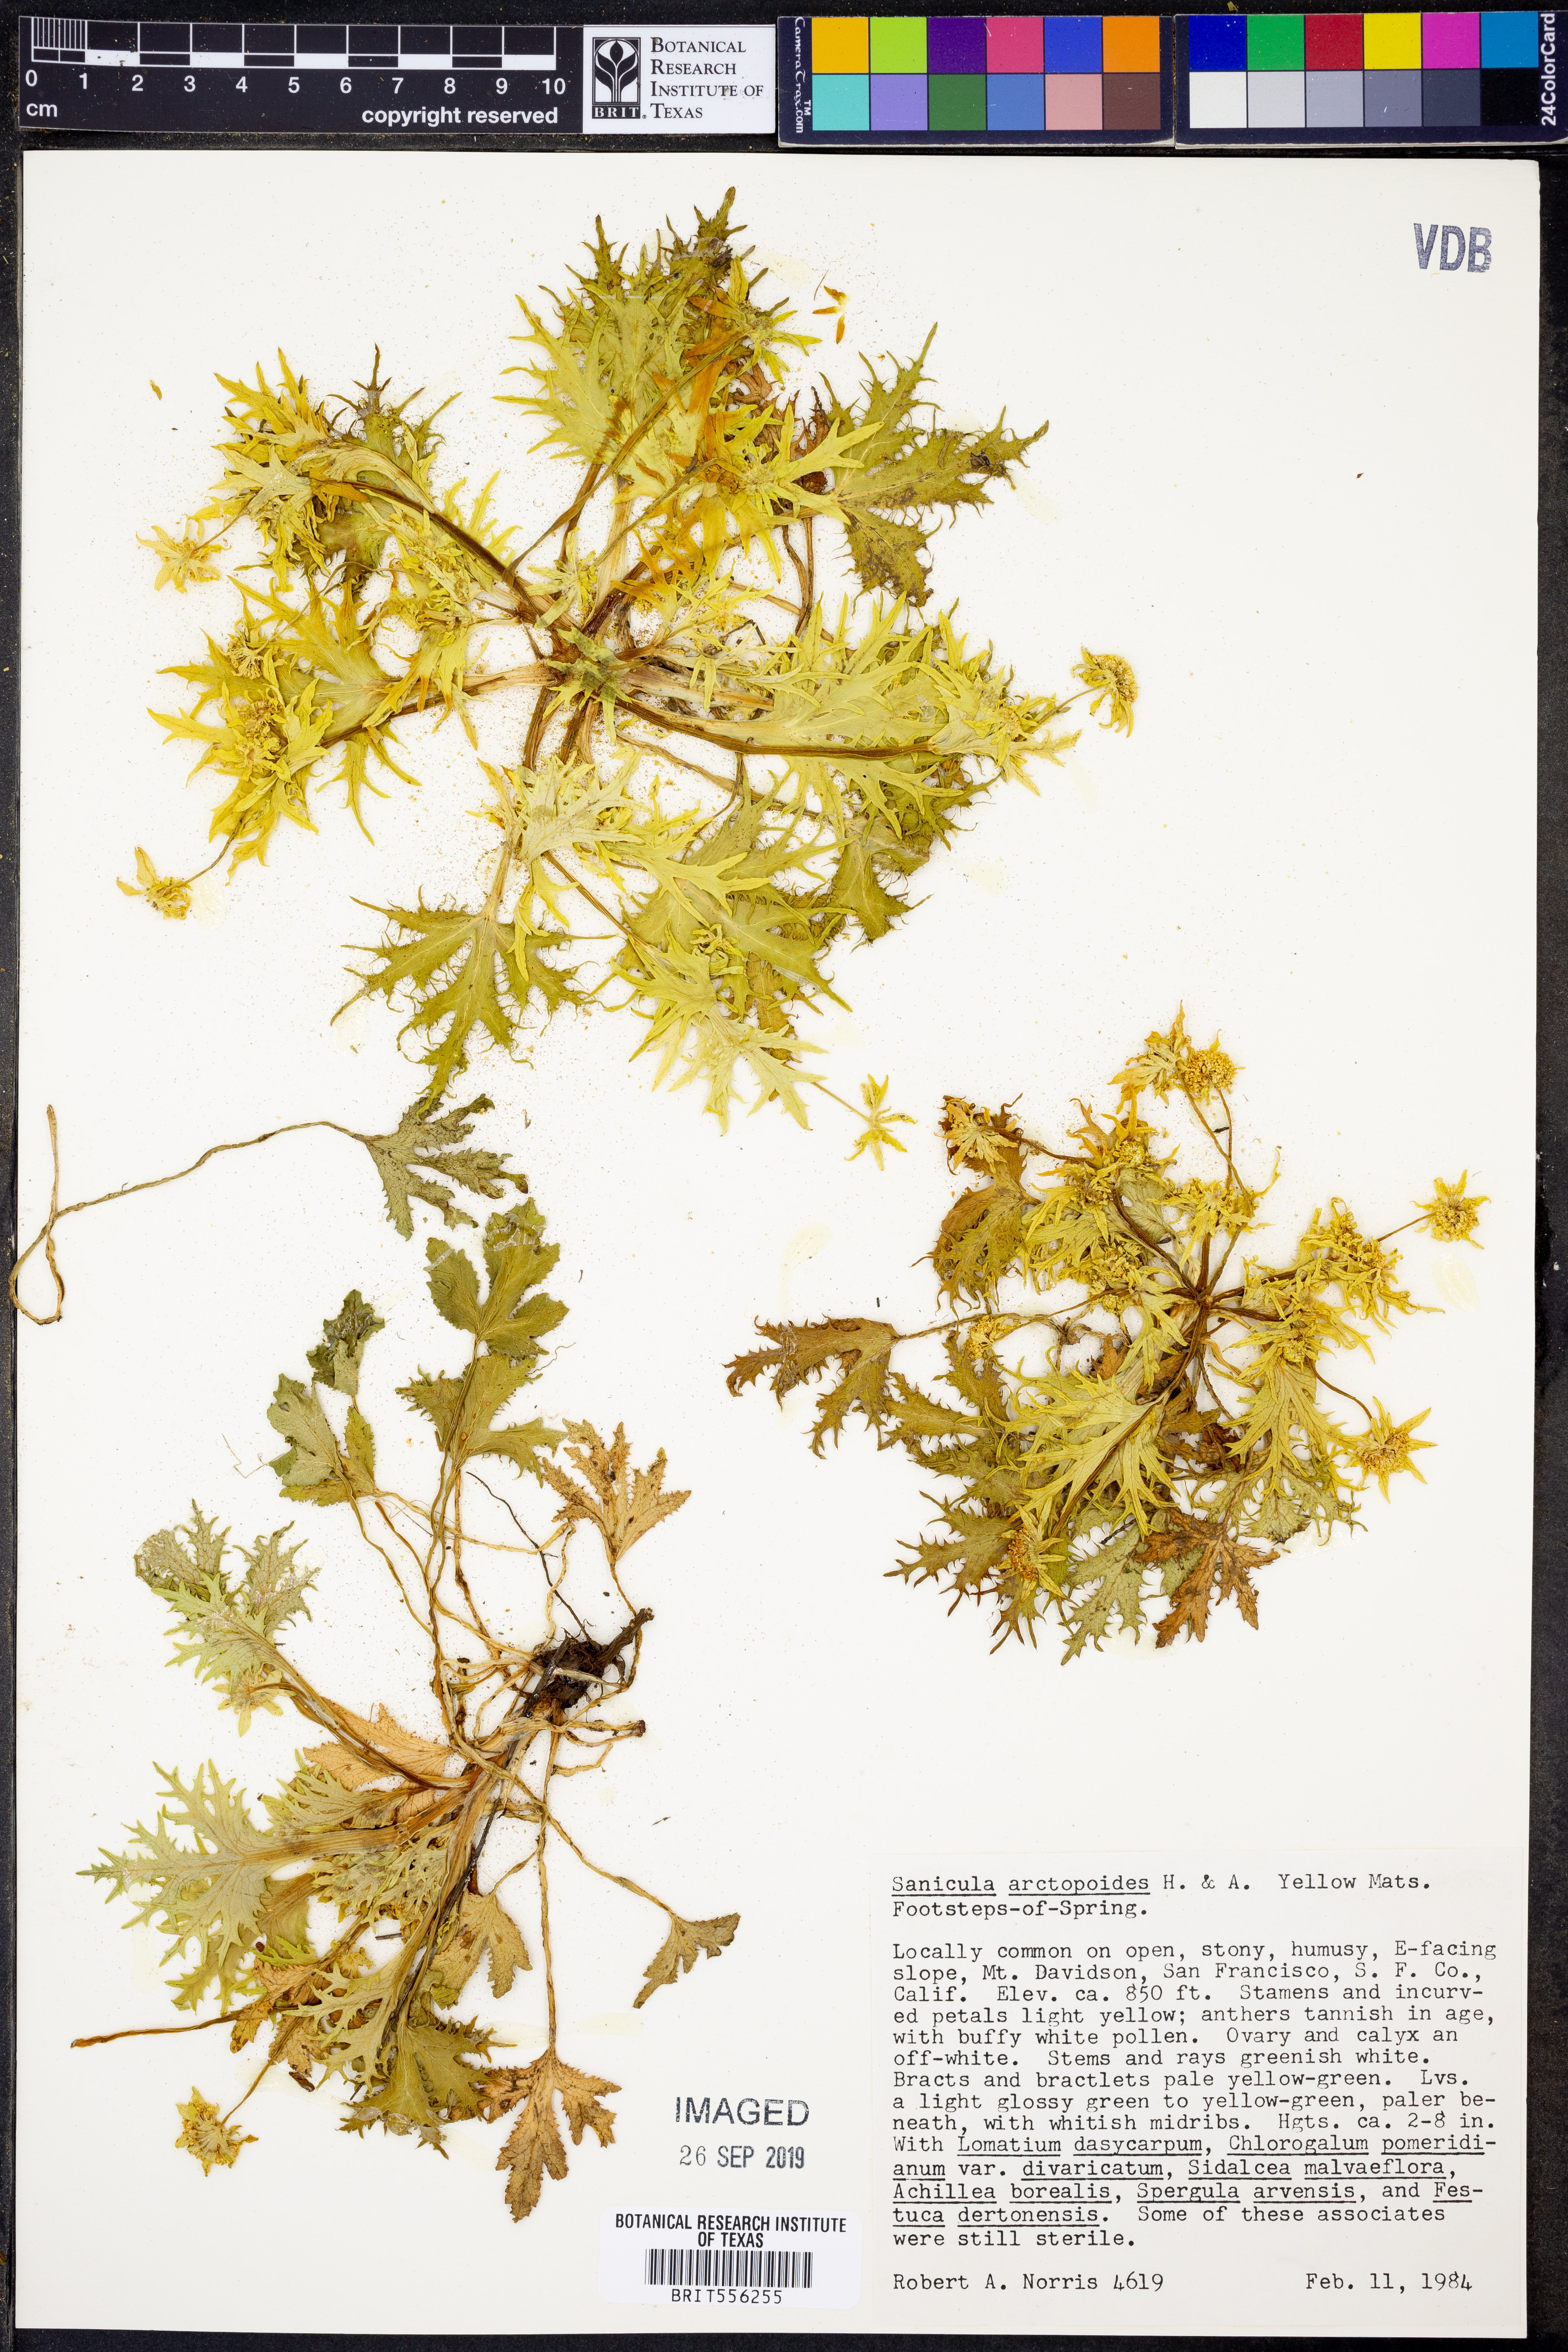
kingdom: Plantae
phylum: Tracheophyta
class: Magnoliopsida
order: Apiales
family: Apiaceae
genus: Sanicula
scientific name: Sanicula arctopoides
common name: Footsteps-of-spring
